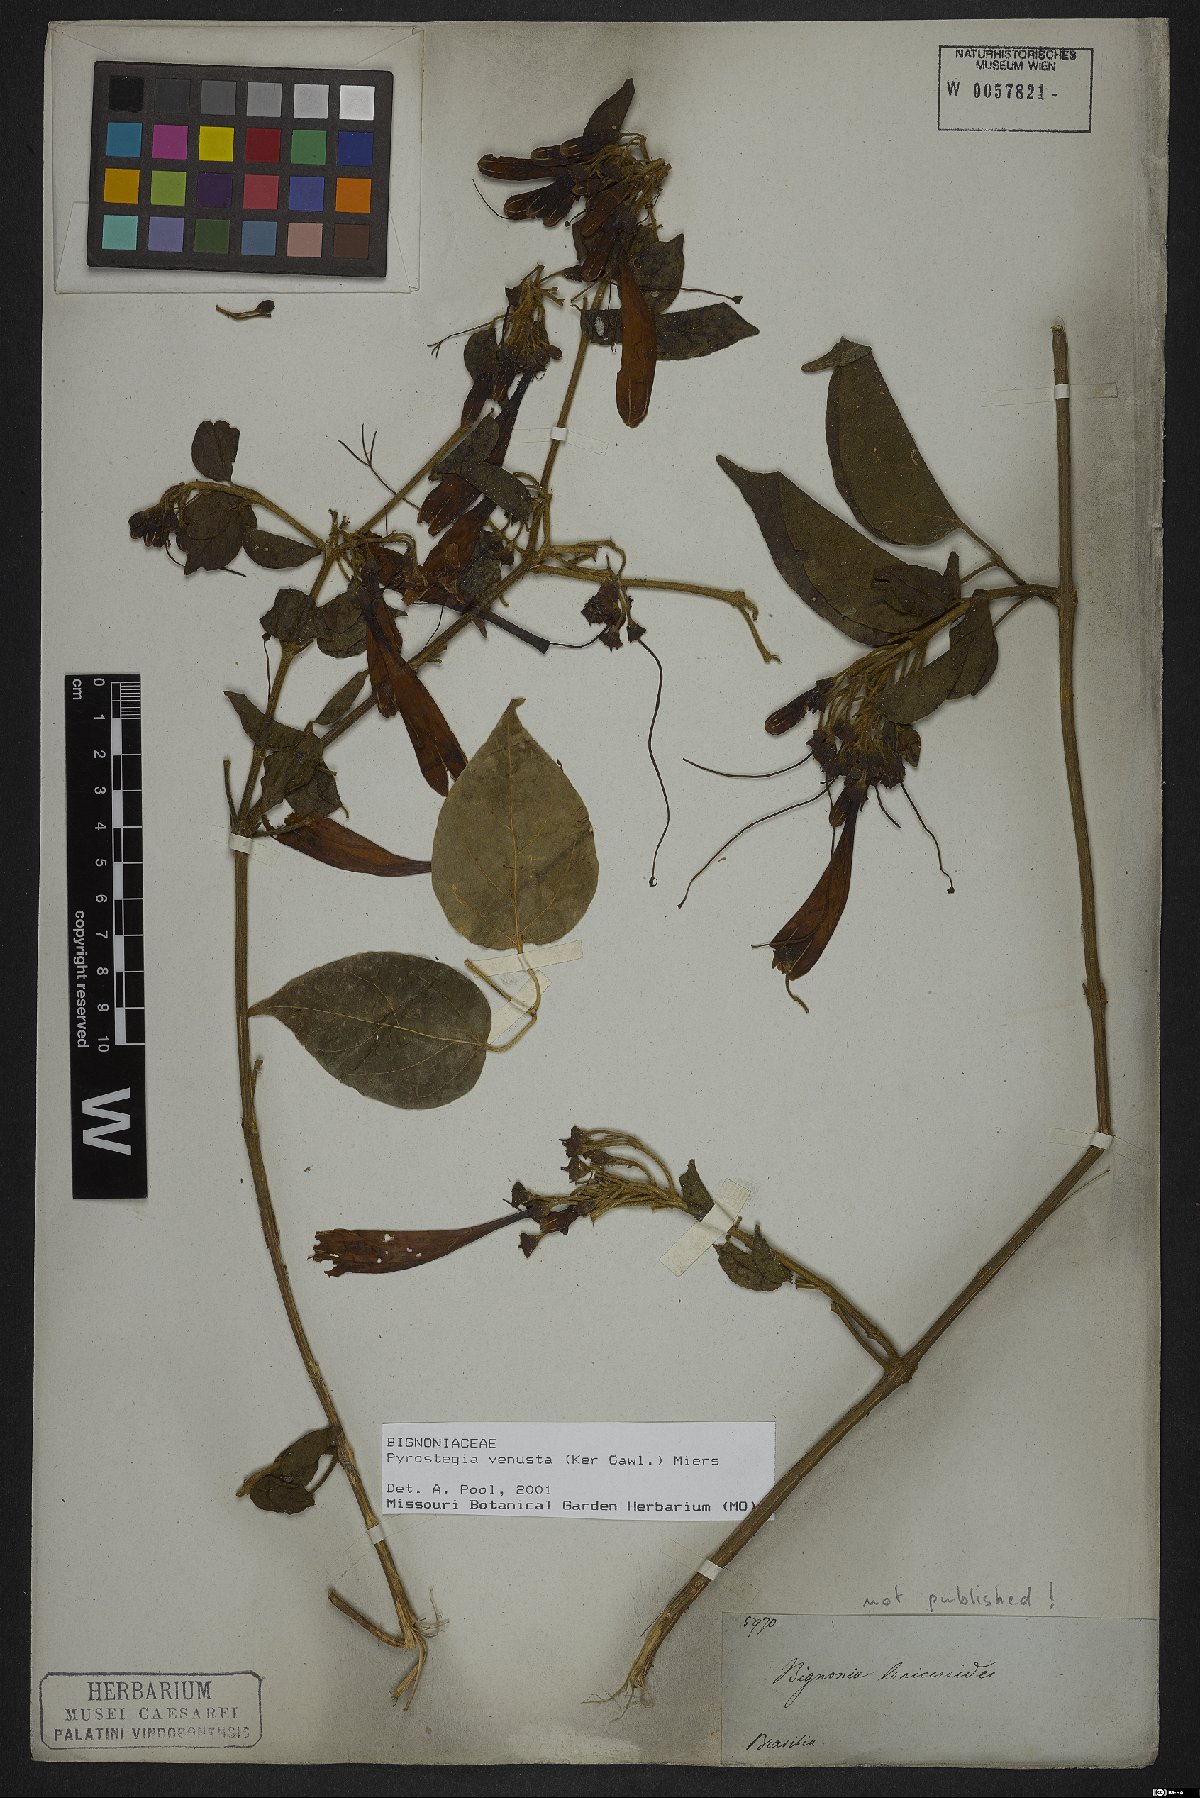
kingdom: Plantae
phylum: Tracheophyta
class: Magnoliopsida
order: Lamiales
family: Bignoniaceae
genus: Pyrostegia
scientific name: Pyrostegia venusta
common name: Flamevine
